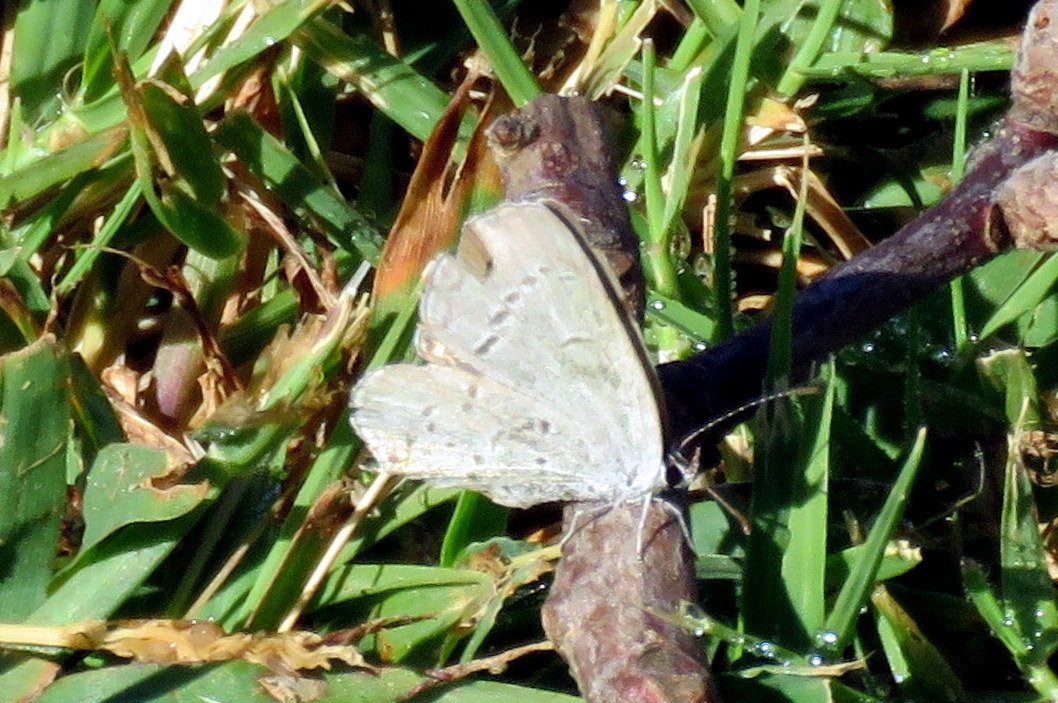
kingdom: Animalia
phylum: Arthropoda
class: Insecta
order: Lepidoptera
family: Lycaenidae
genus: Cyaniris
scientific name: Cyaniris neglecta
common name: Summer Azure
